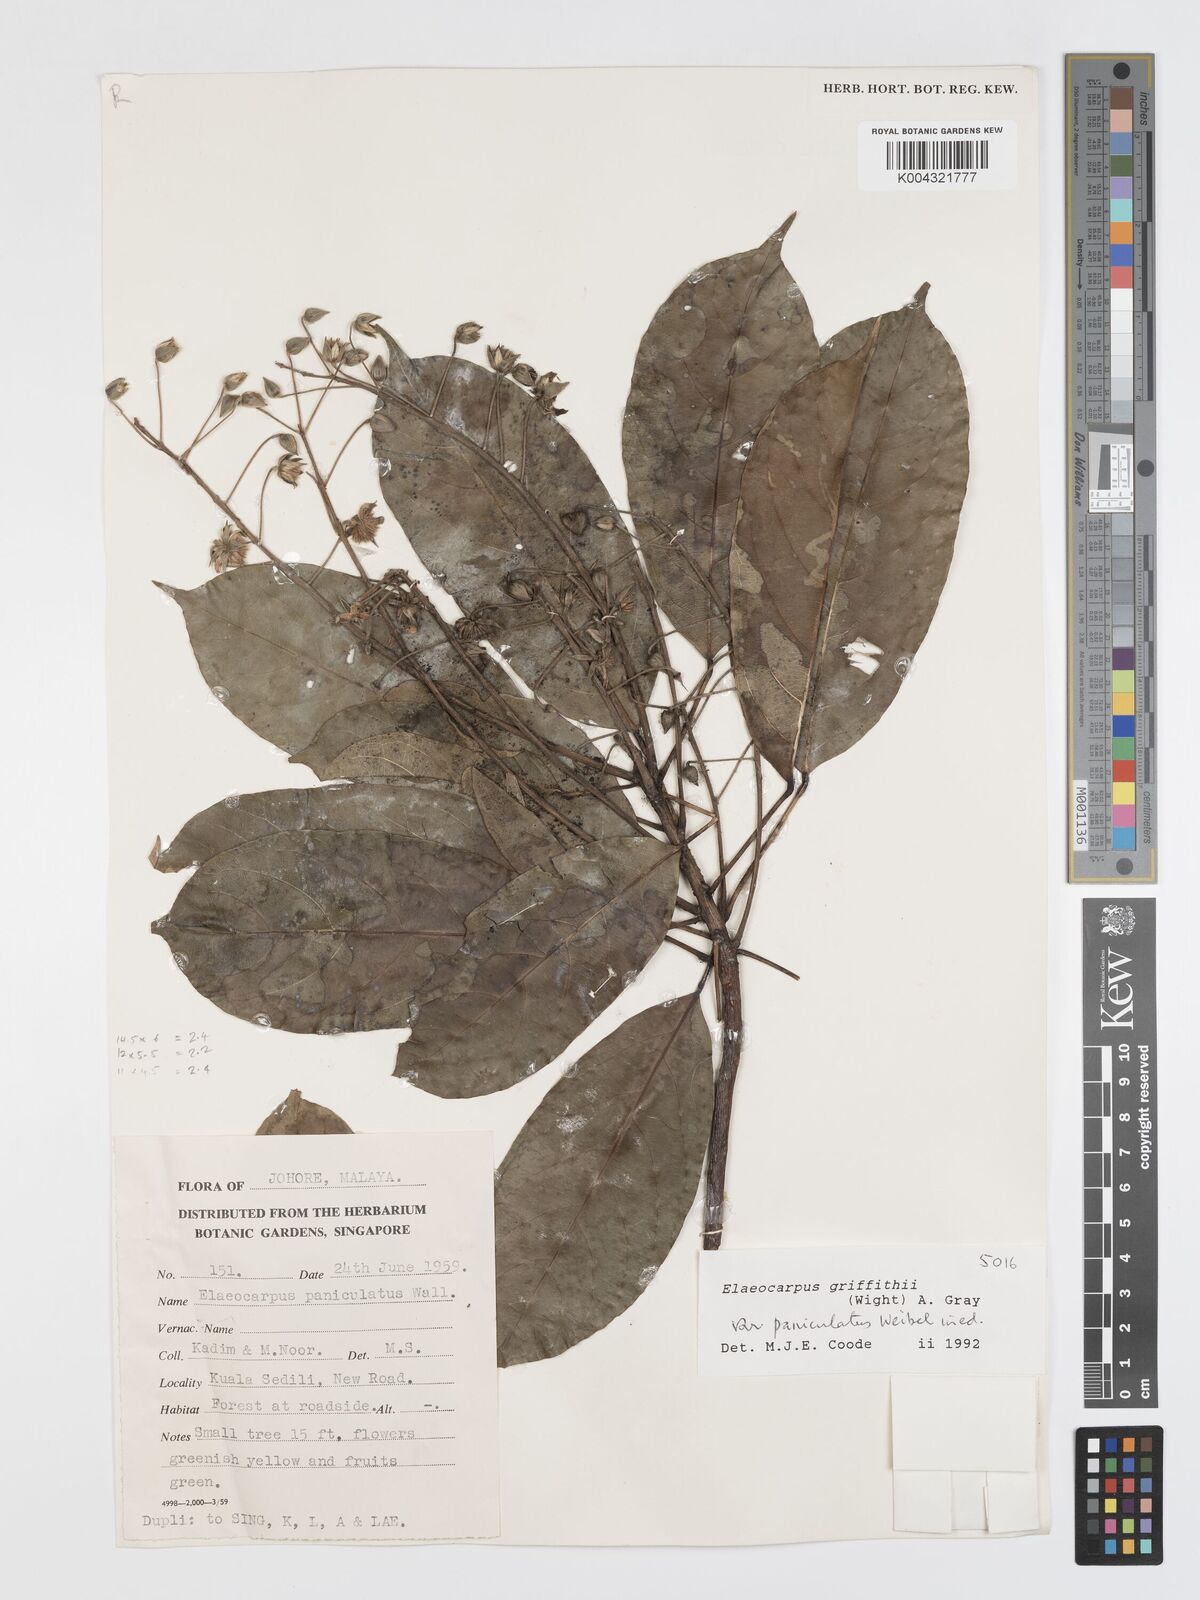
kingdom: Plantae
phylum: Tracheophyta
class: Magnoliopsida
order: Oxalidales
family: Elaeocarpaceae
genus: Elaeocarpus
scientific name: Elaeocarpus griffithii
